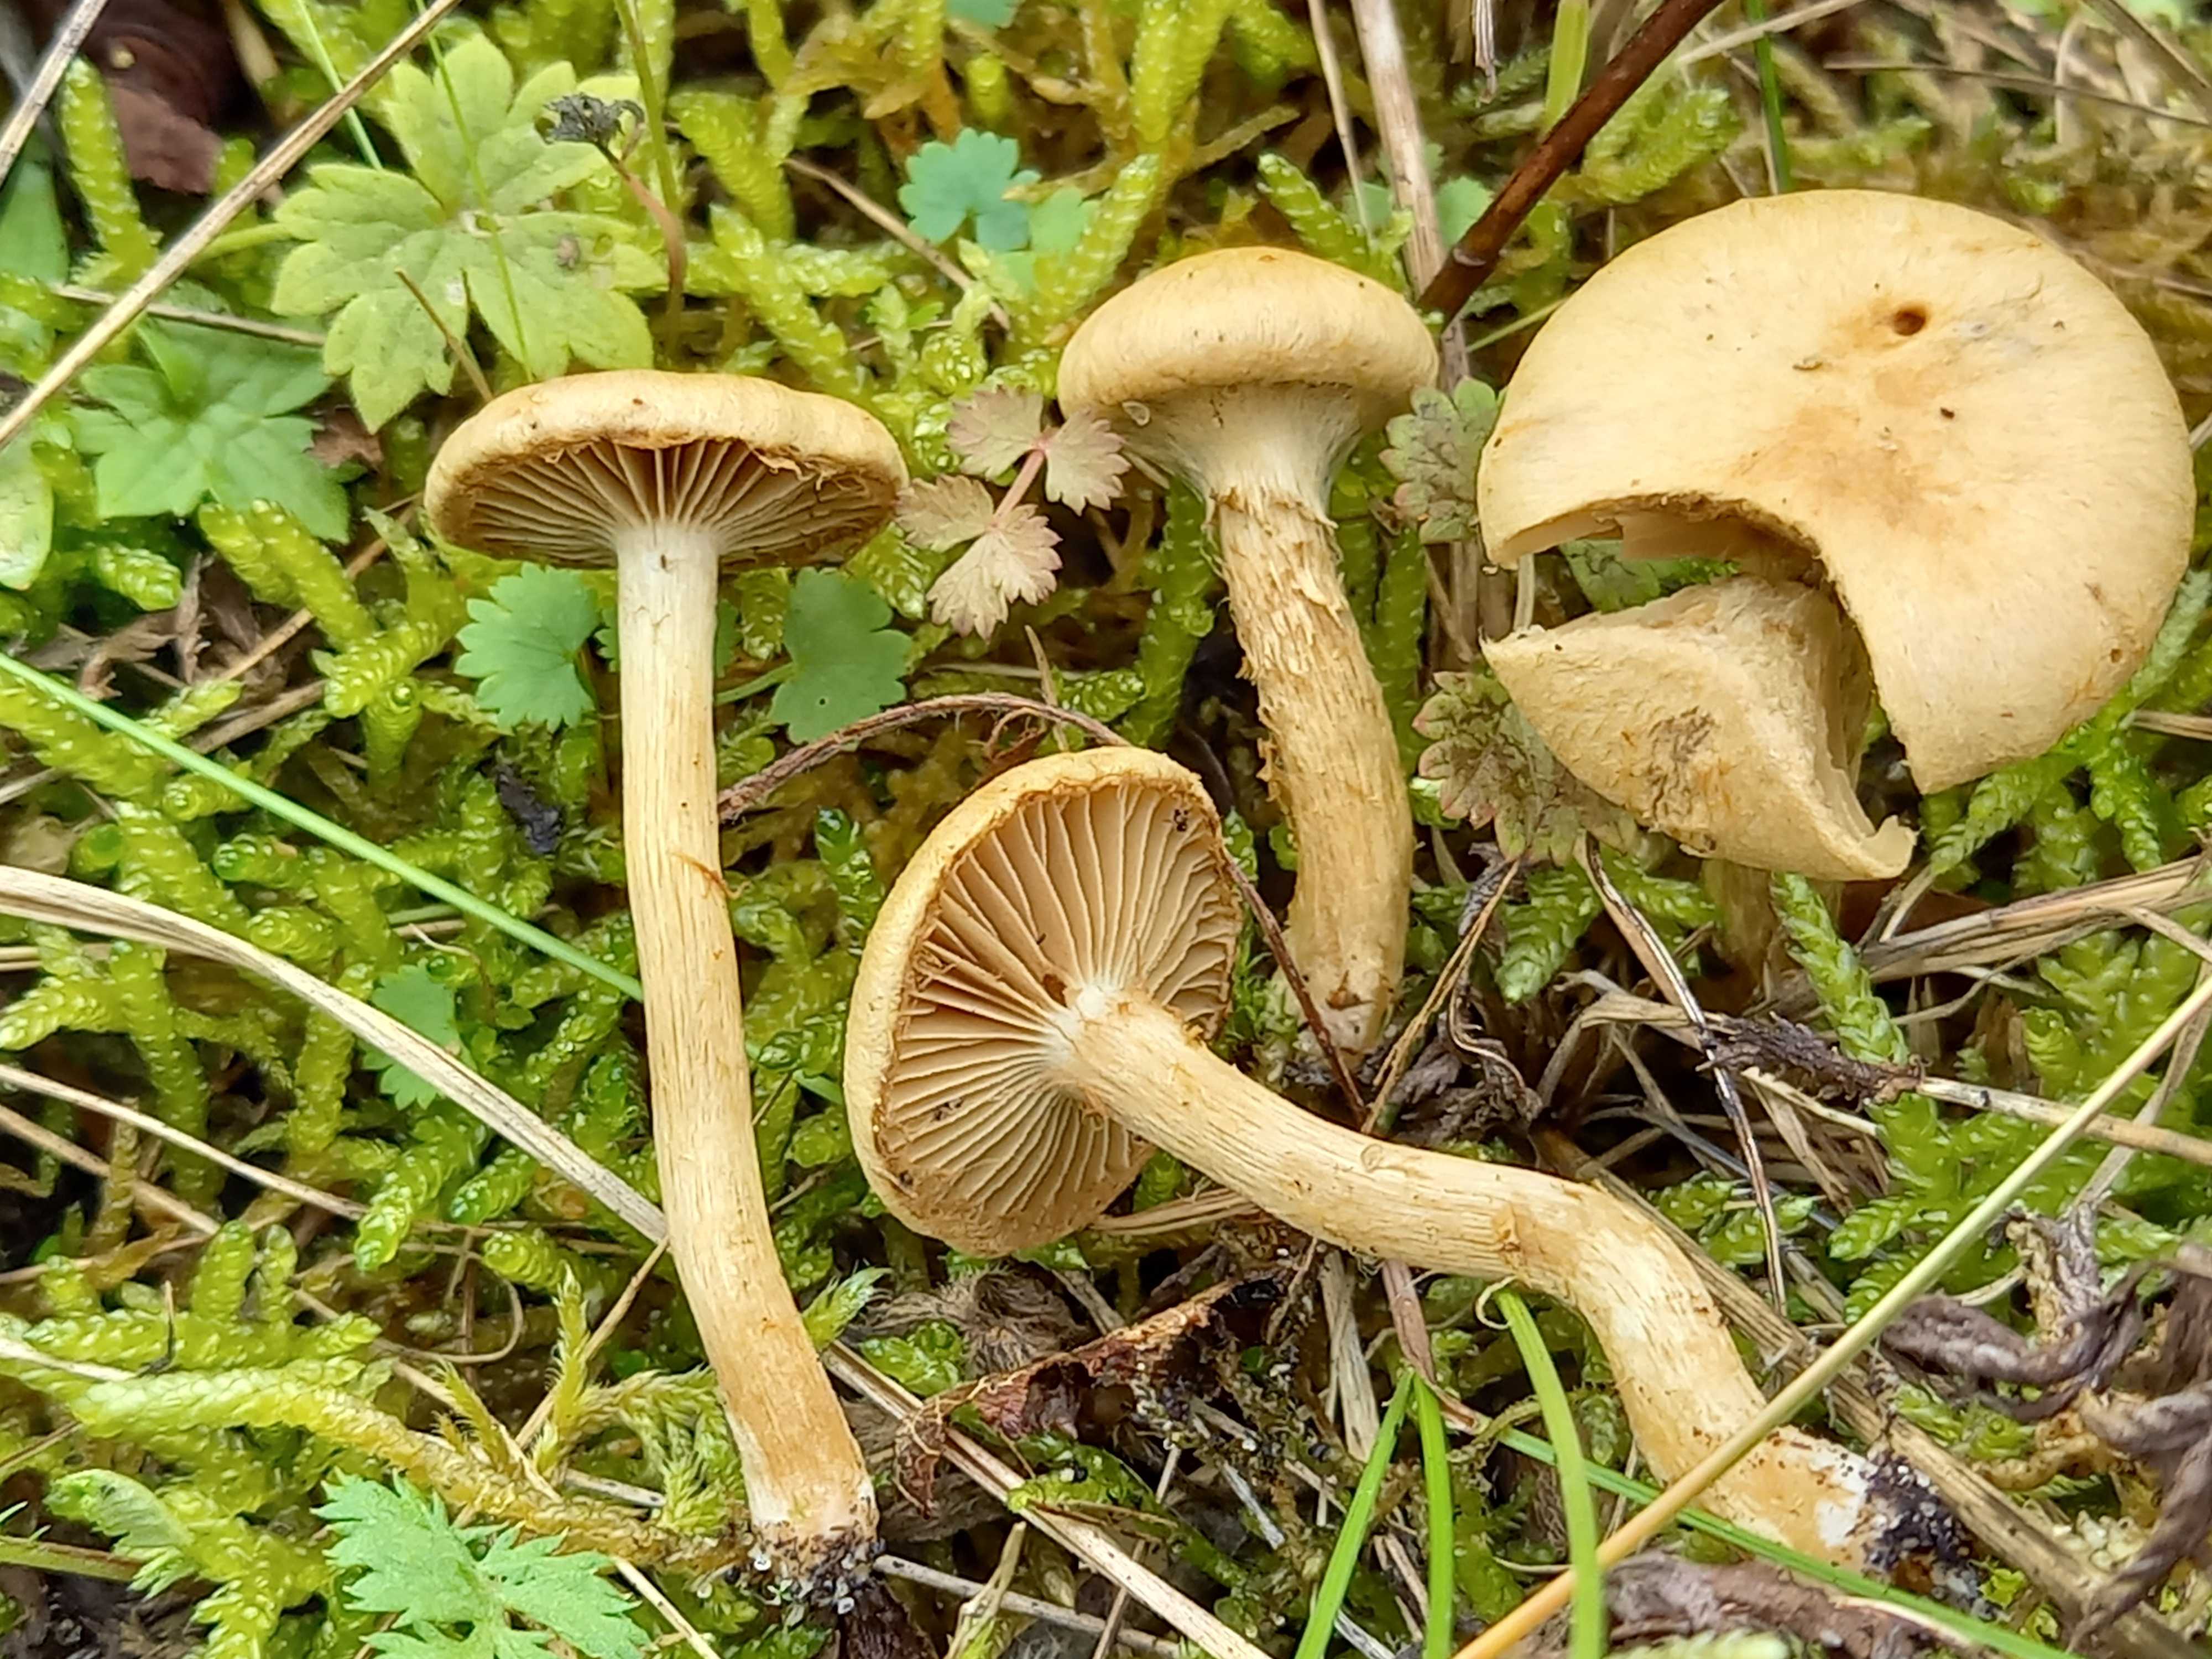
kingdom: Fungi
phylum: Basidiomycota
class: Agaricomycetes
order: Agaricales
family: Inocybaceae
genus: Mallocybe
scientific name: Mallocybe
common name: Trævlhat
